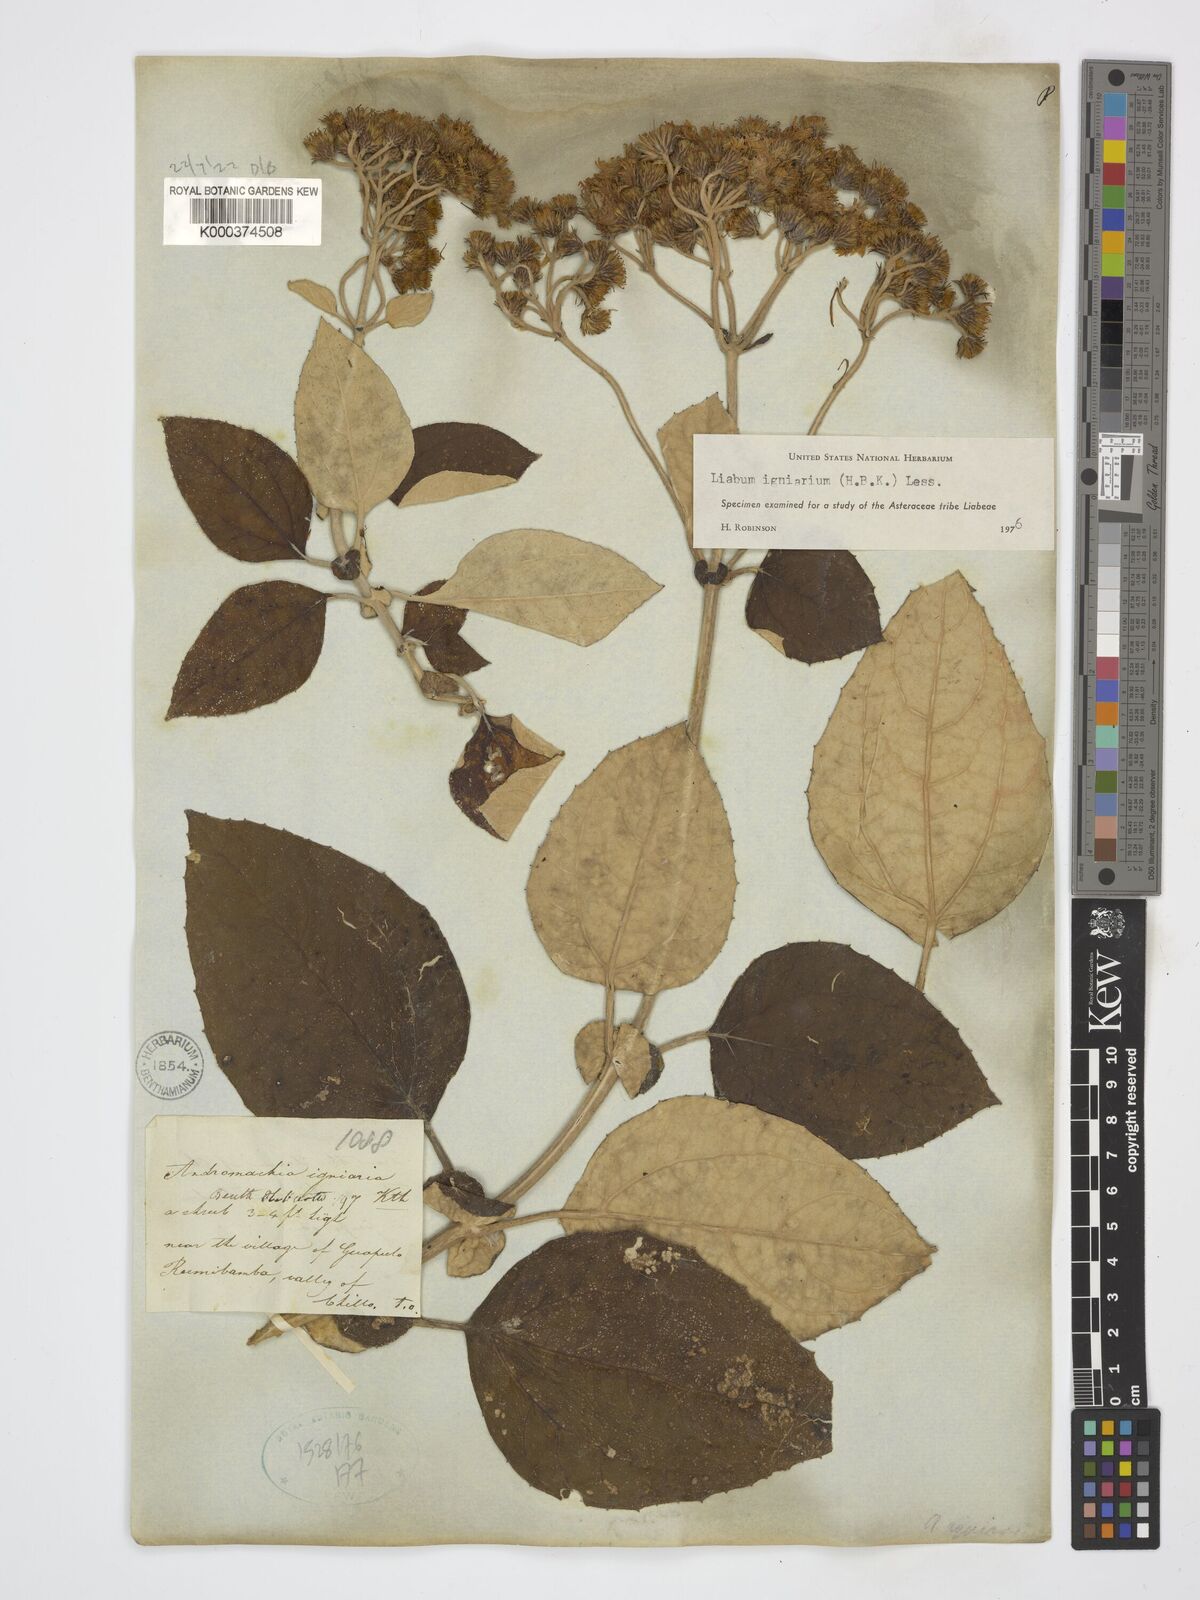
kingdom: Plantae
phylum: Tracheophyta
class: Magnoliopsida
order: Asterales
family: Asteraceae
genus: Liabum
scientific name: Liabum igniarium
